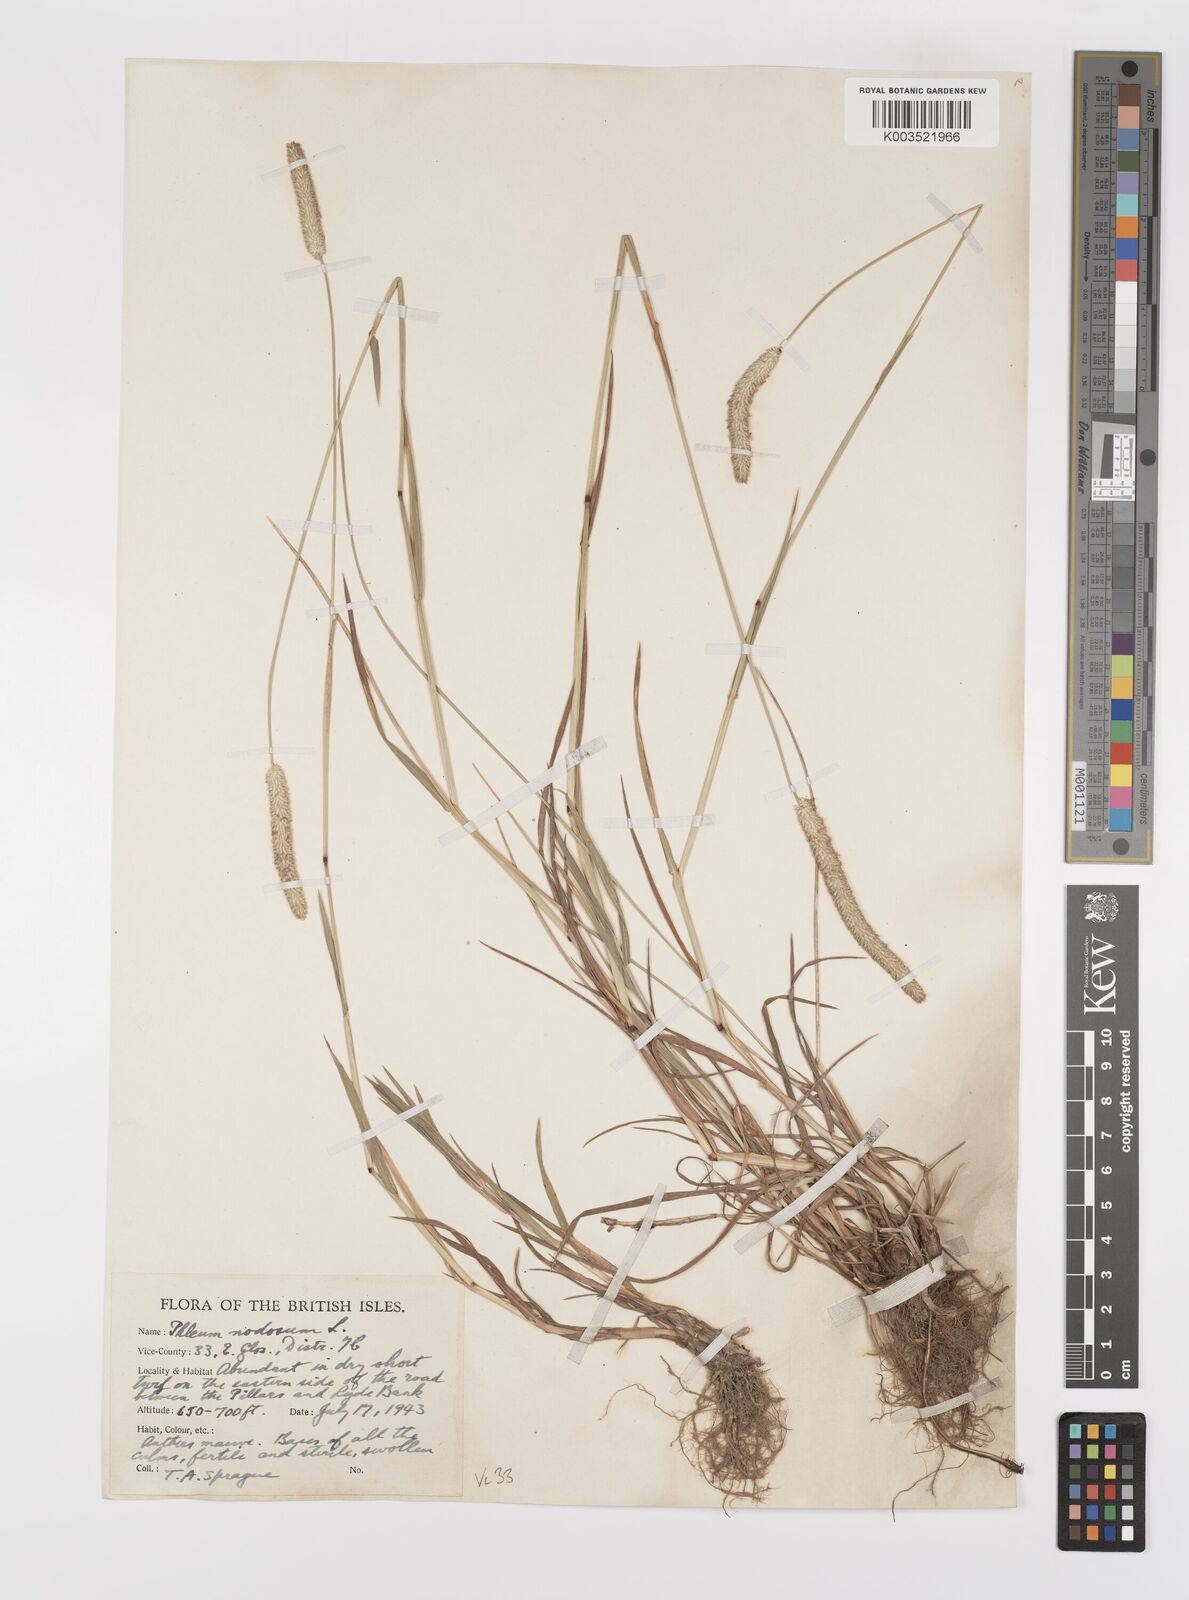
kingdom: Plantae
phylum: Tracheophyta
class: Liliopsida
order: Poales
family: Poaceae
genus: Phleum
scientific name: Phleum bertolonii
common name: Smaller cat's-tail
